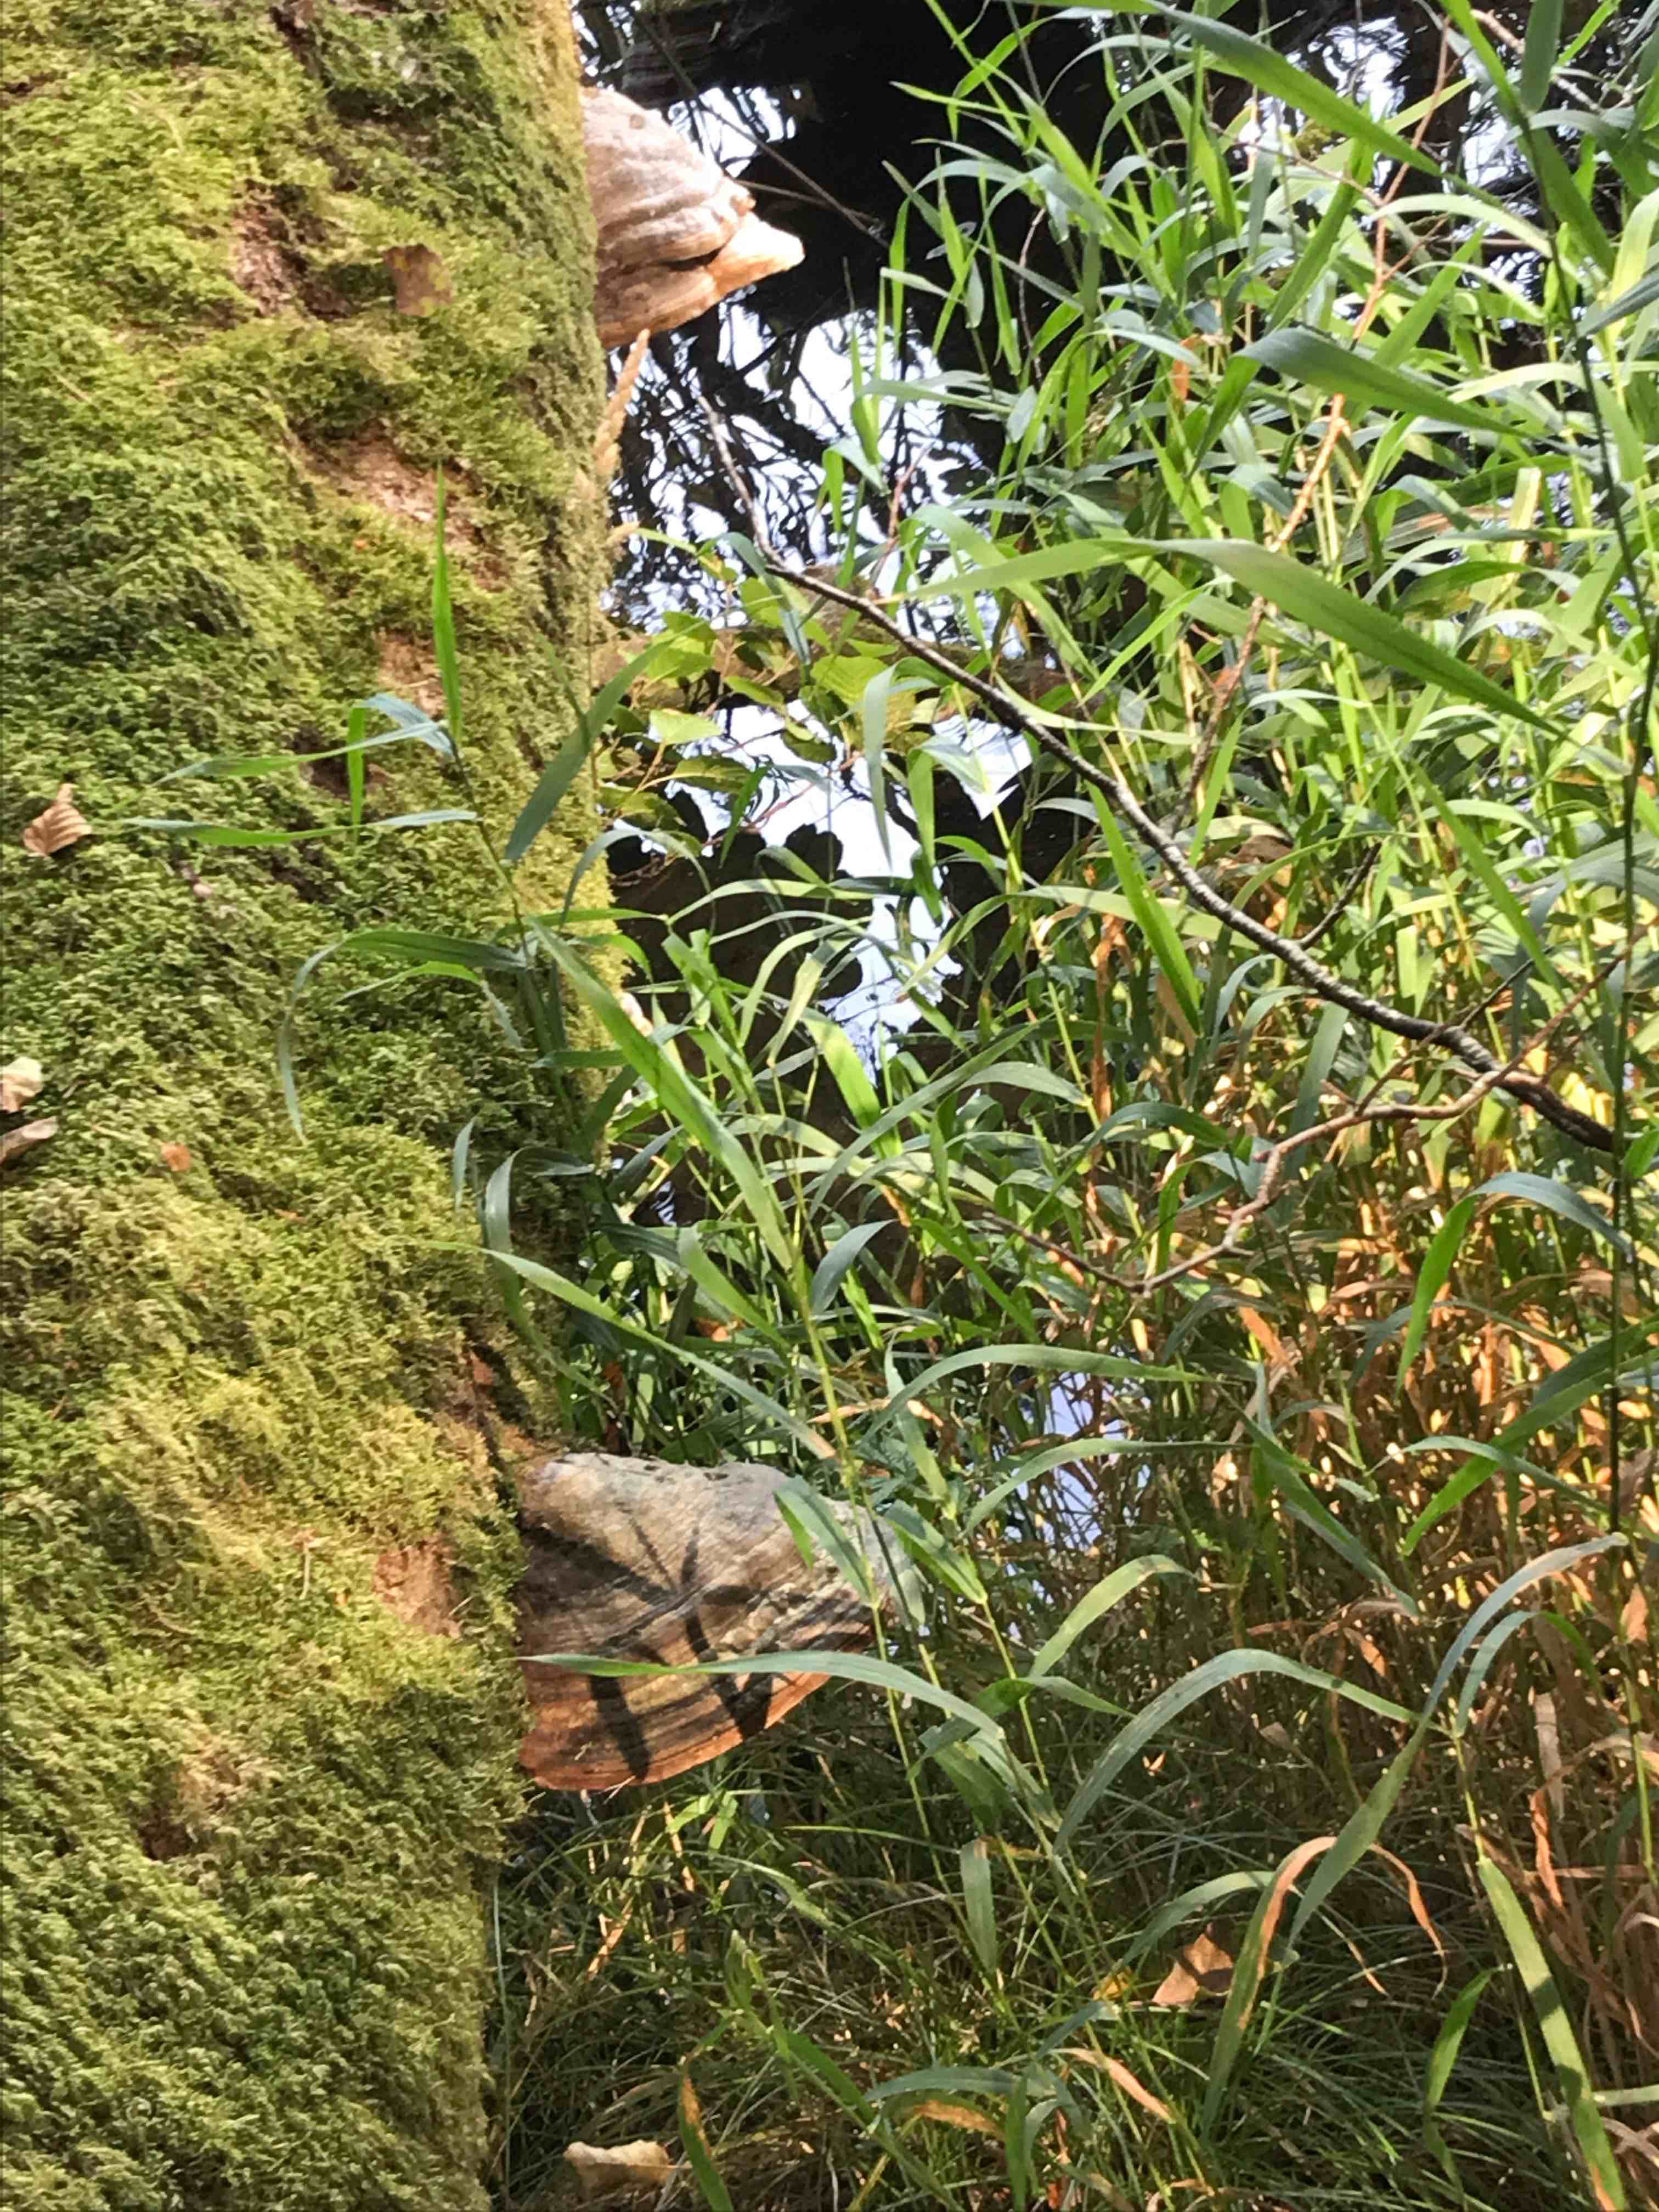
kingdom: Fungi
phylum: Basidiomycota
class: Agaricomycetes
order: Polyporales
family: Polyporaceae
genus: Fomes
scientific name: Fomes fomentarius
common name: tøndersvamp
